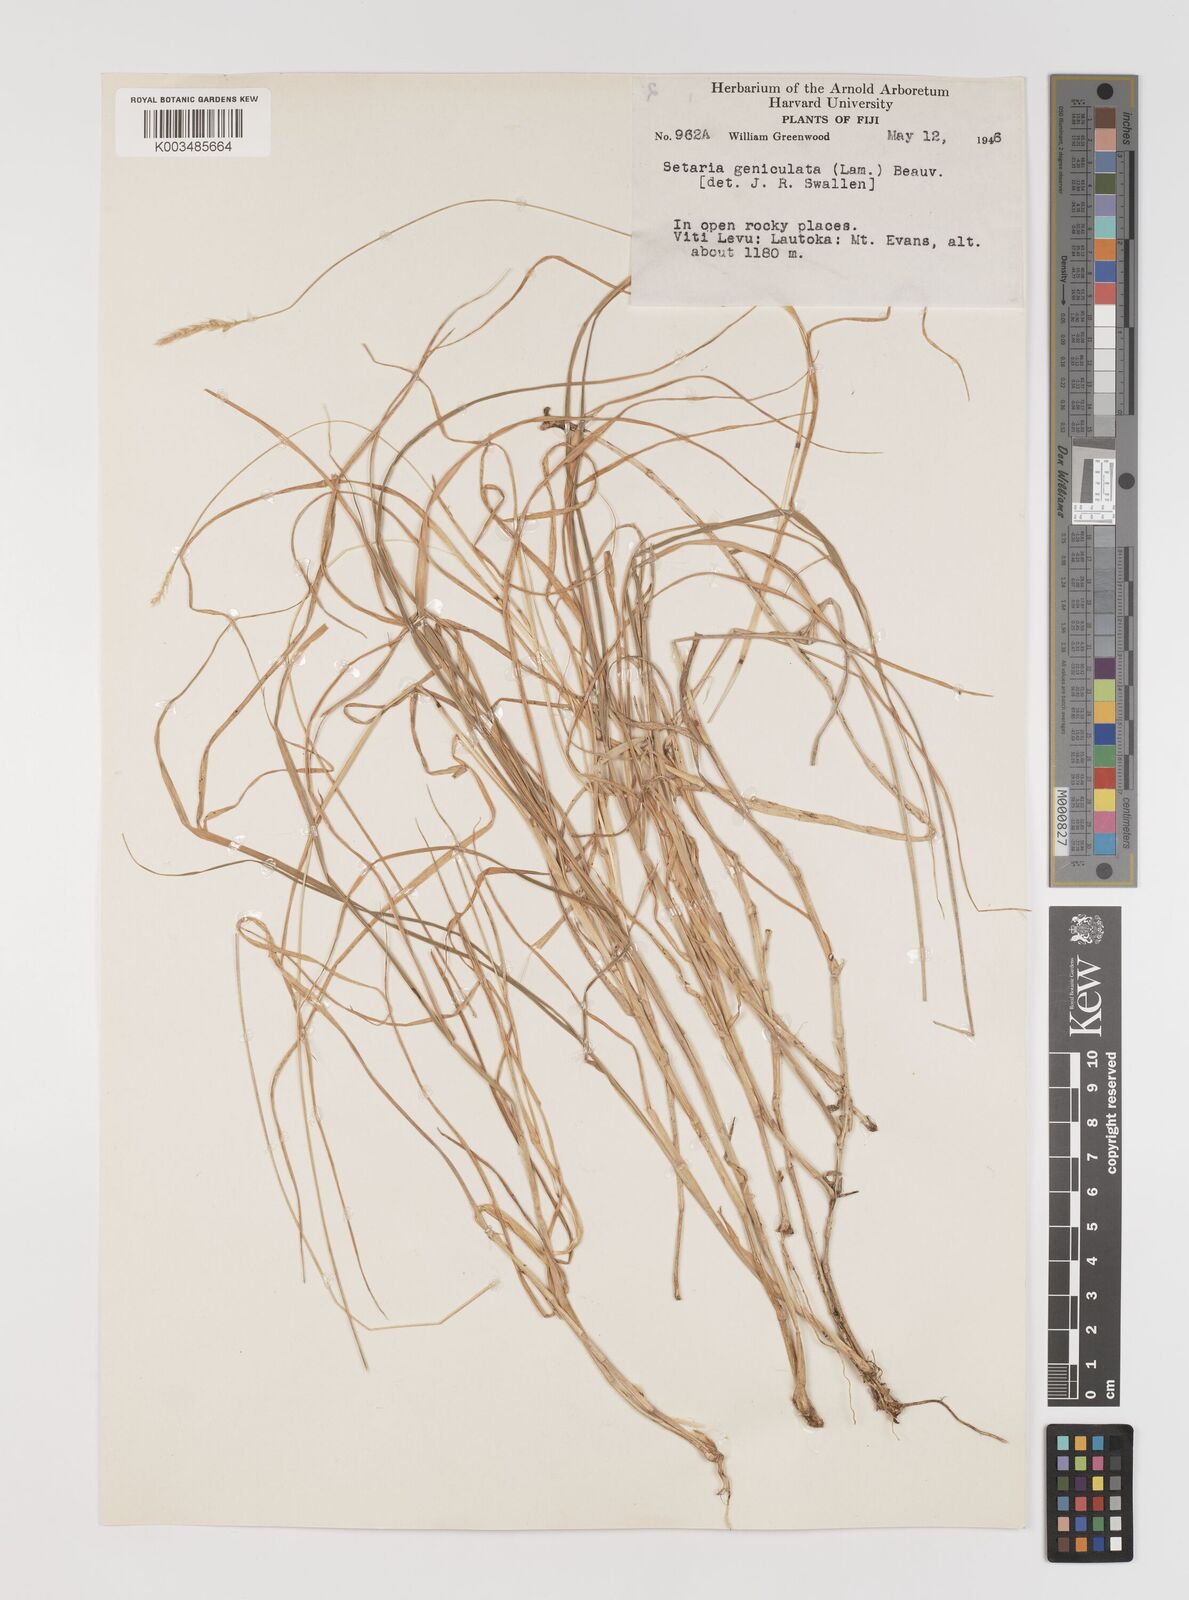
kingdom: Plantae
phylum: Tracheophyta
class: Liliopsida
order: Poales
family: Poaceae
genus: Setaria
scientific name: Setaria parviflora
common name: Knotroot bristle-grass
